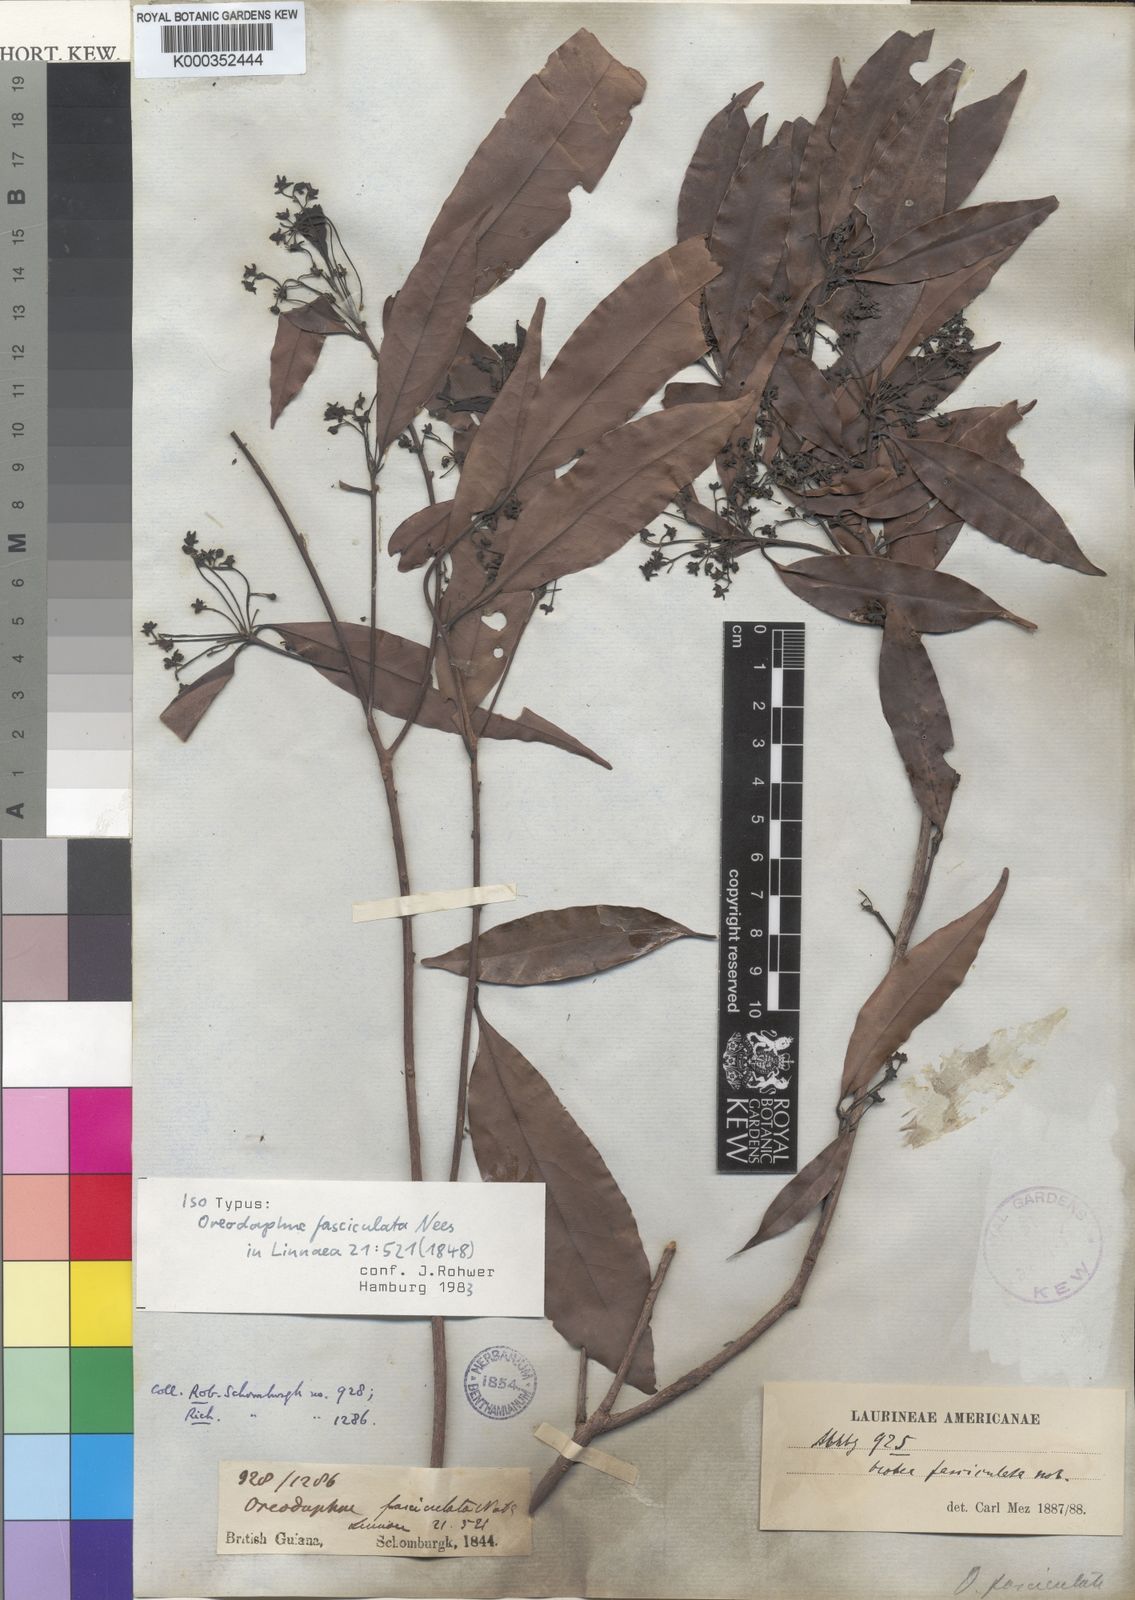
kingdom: Plantae
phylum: Tracheophyta
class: Magnoliopsida
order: Laurales
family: Lauraceae
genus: Mespilodaphne
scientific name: Mespilodaphne fasciculata
